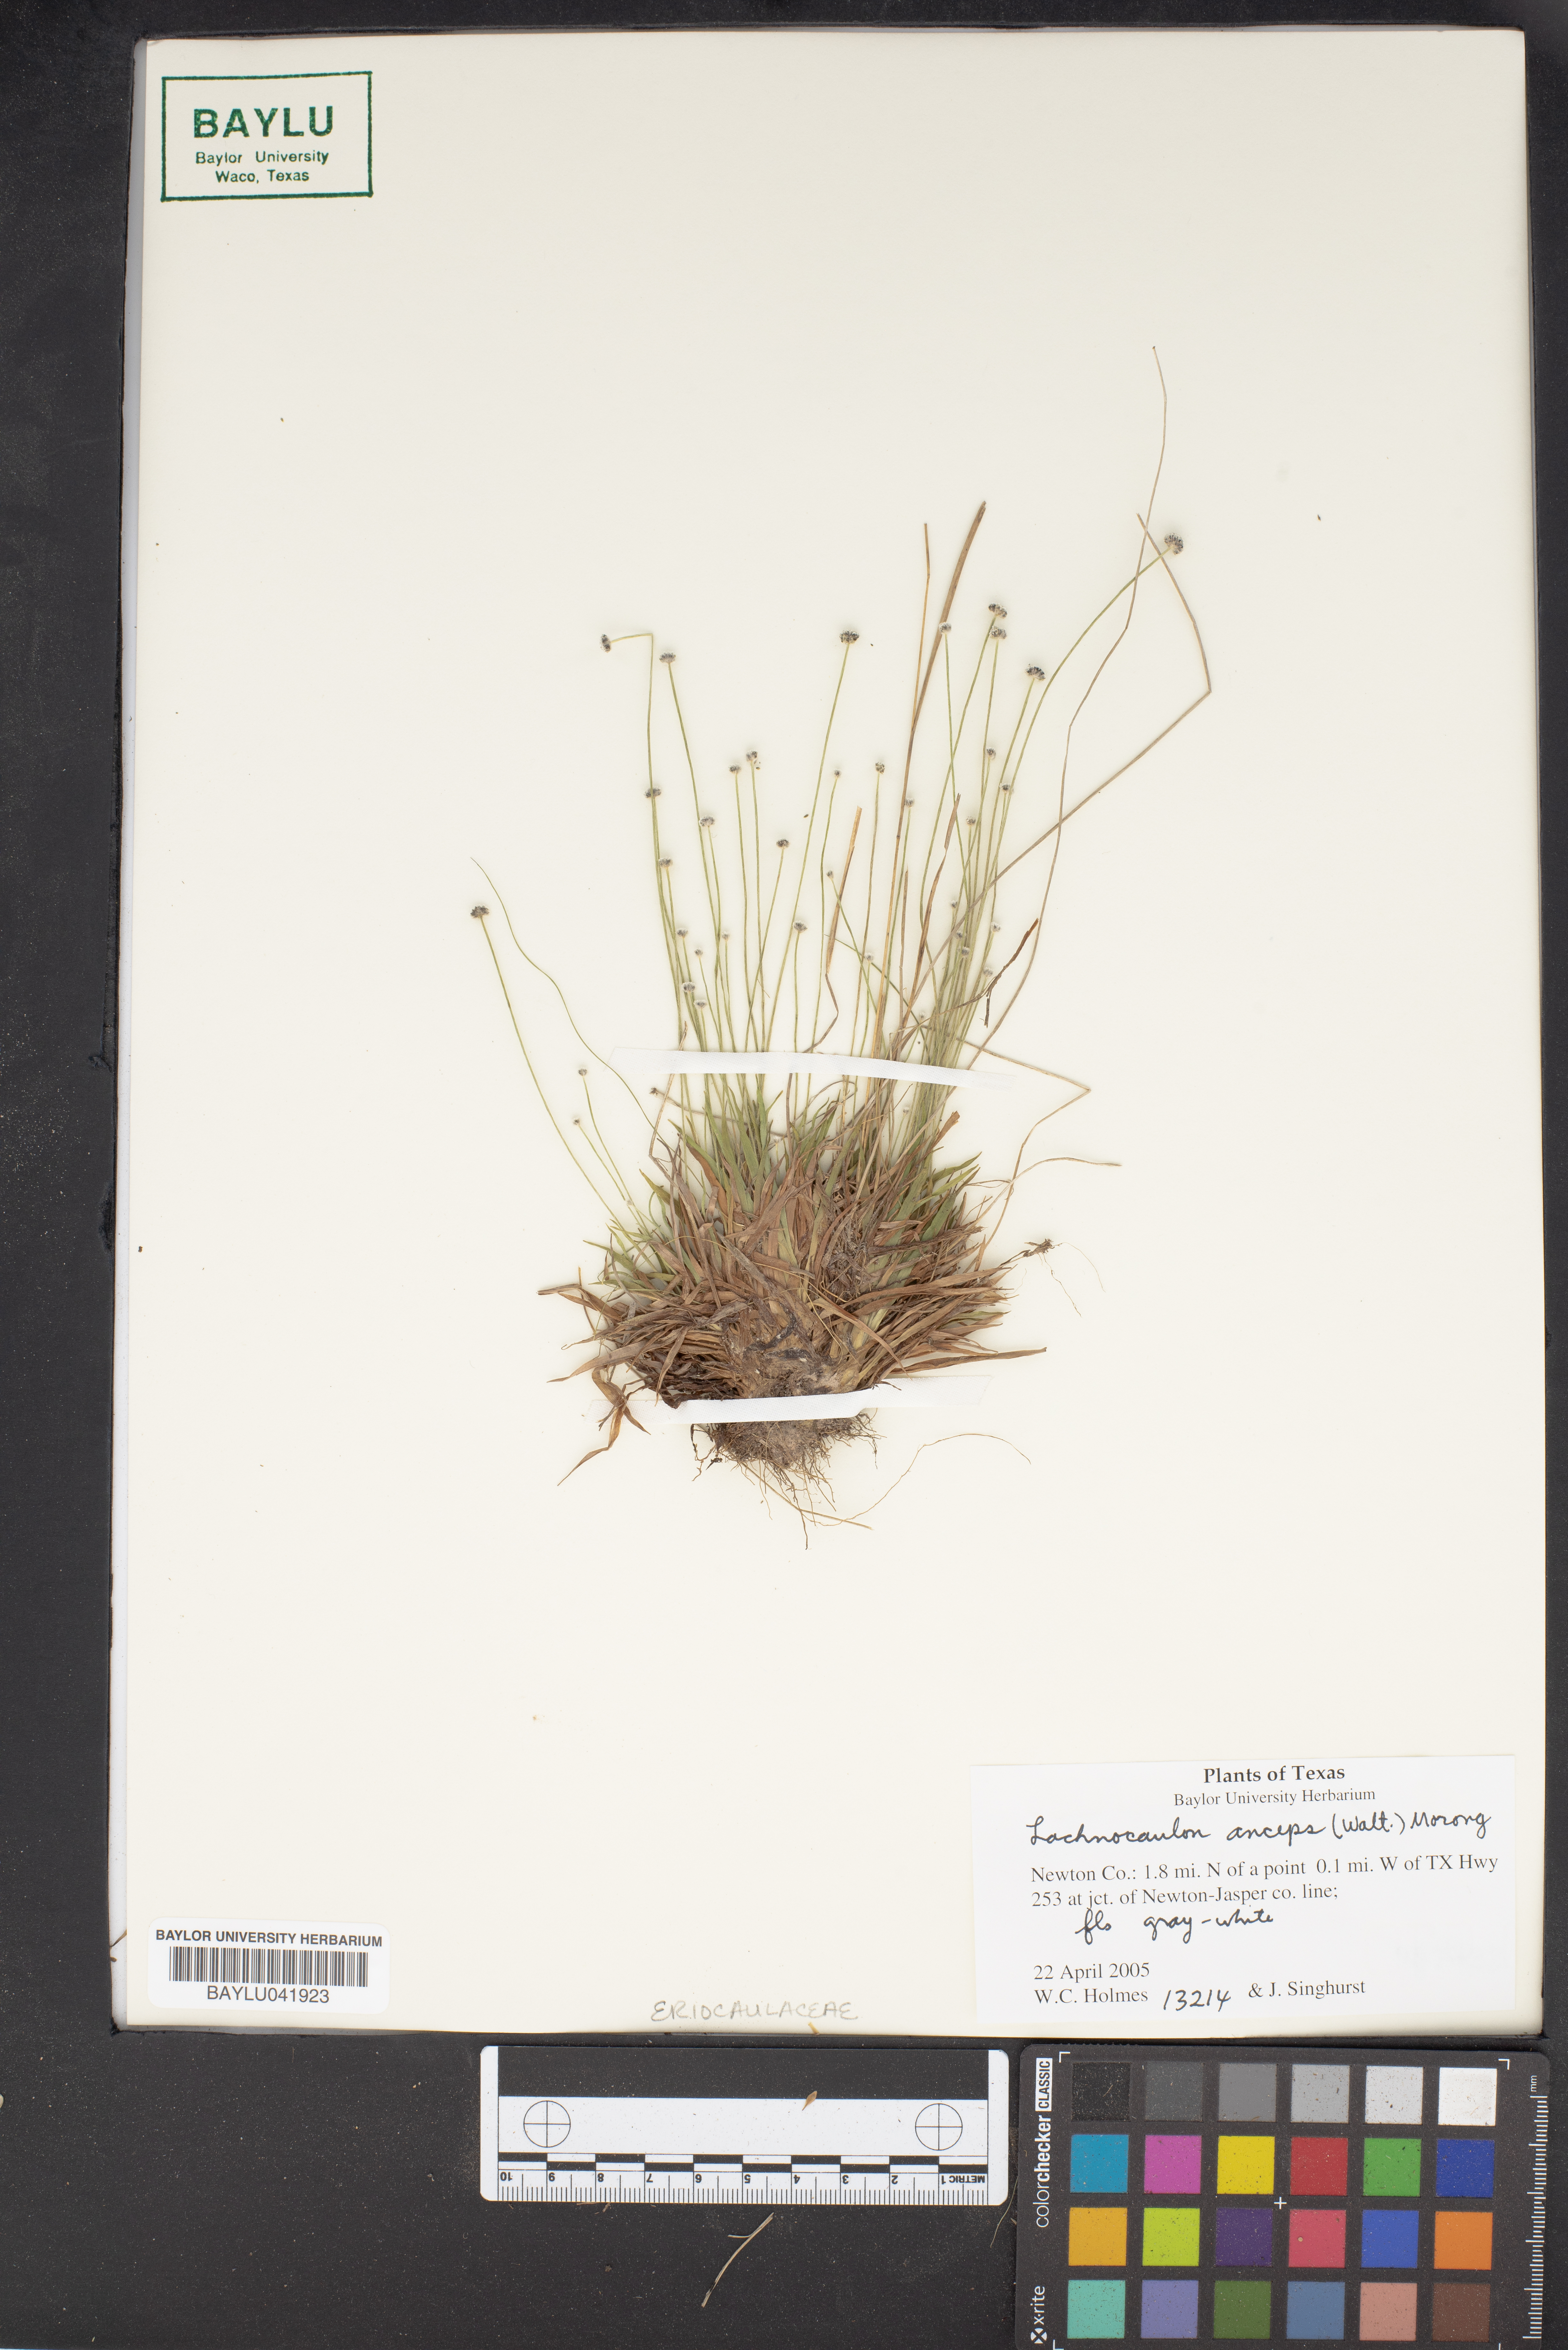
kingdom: Plantae
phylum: Tracheophyta
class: Liliopsida
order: Poales
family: Eriocaulaceae
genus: Paepalanthus
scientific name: Paepalanthus anceps
